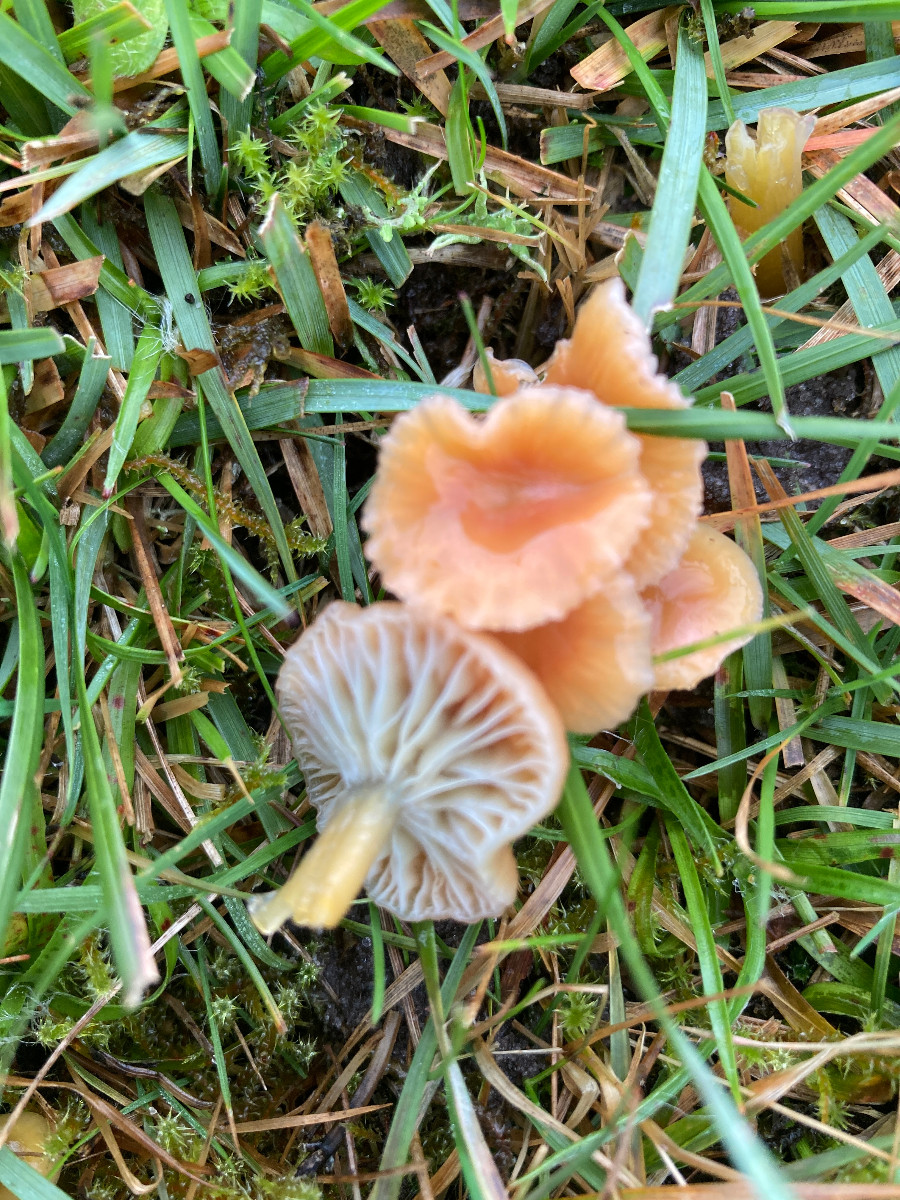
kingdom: Fungi
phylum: Basidiomycota
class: Agaricomycetes
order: Agaricales
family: Hygrophoraceae
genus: Gliophorus
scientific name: Gliophorus laetus
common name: brusk-vokshat
